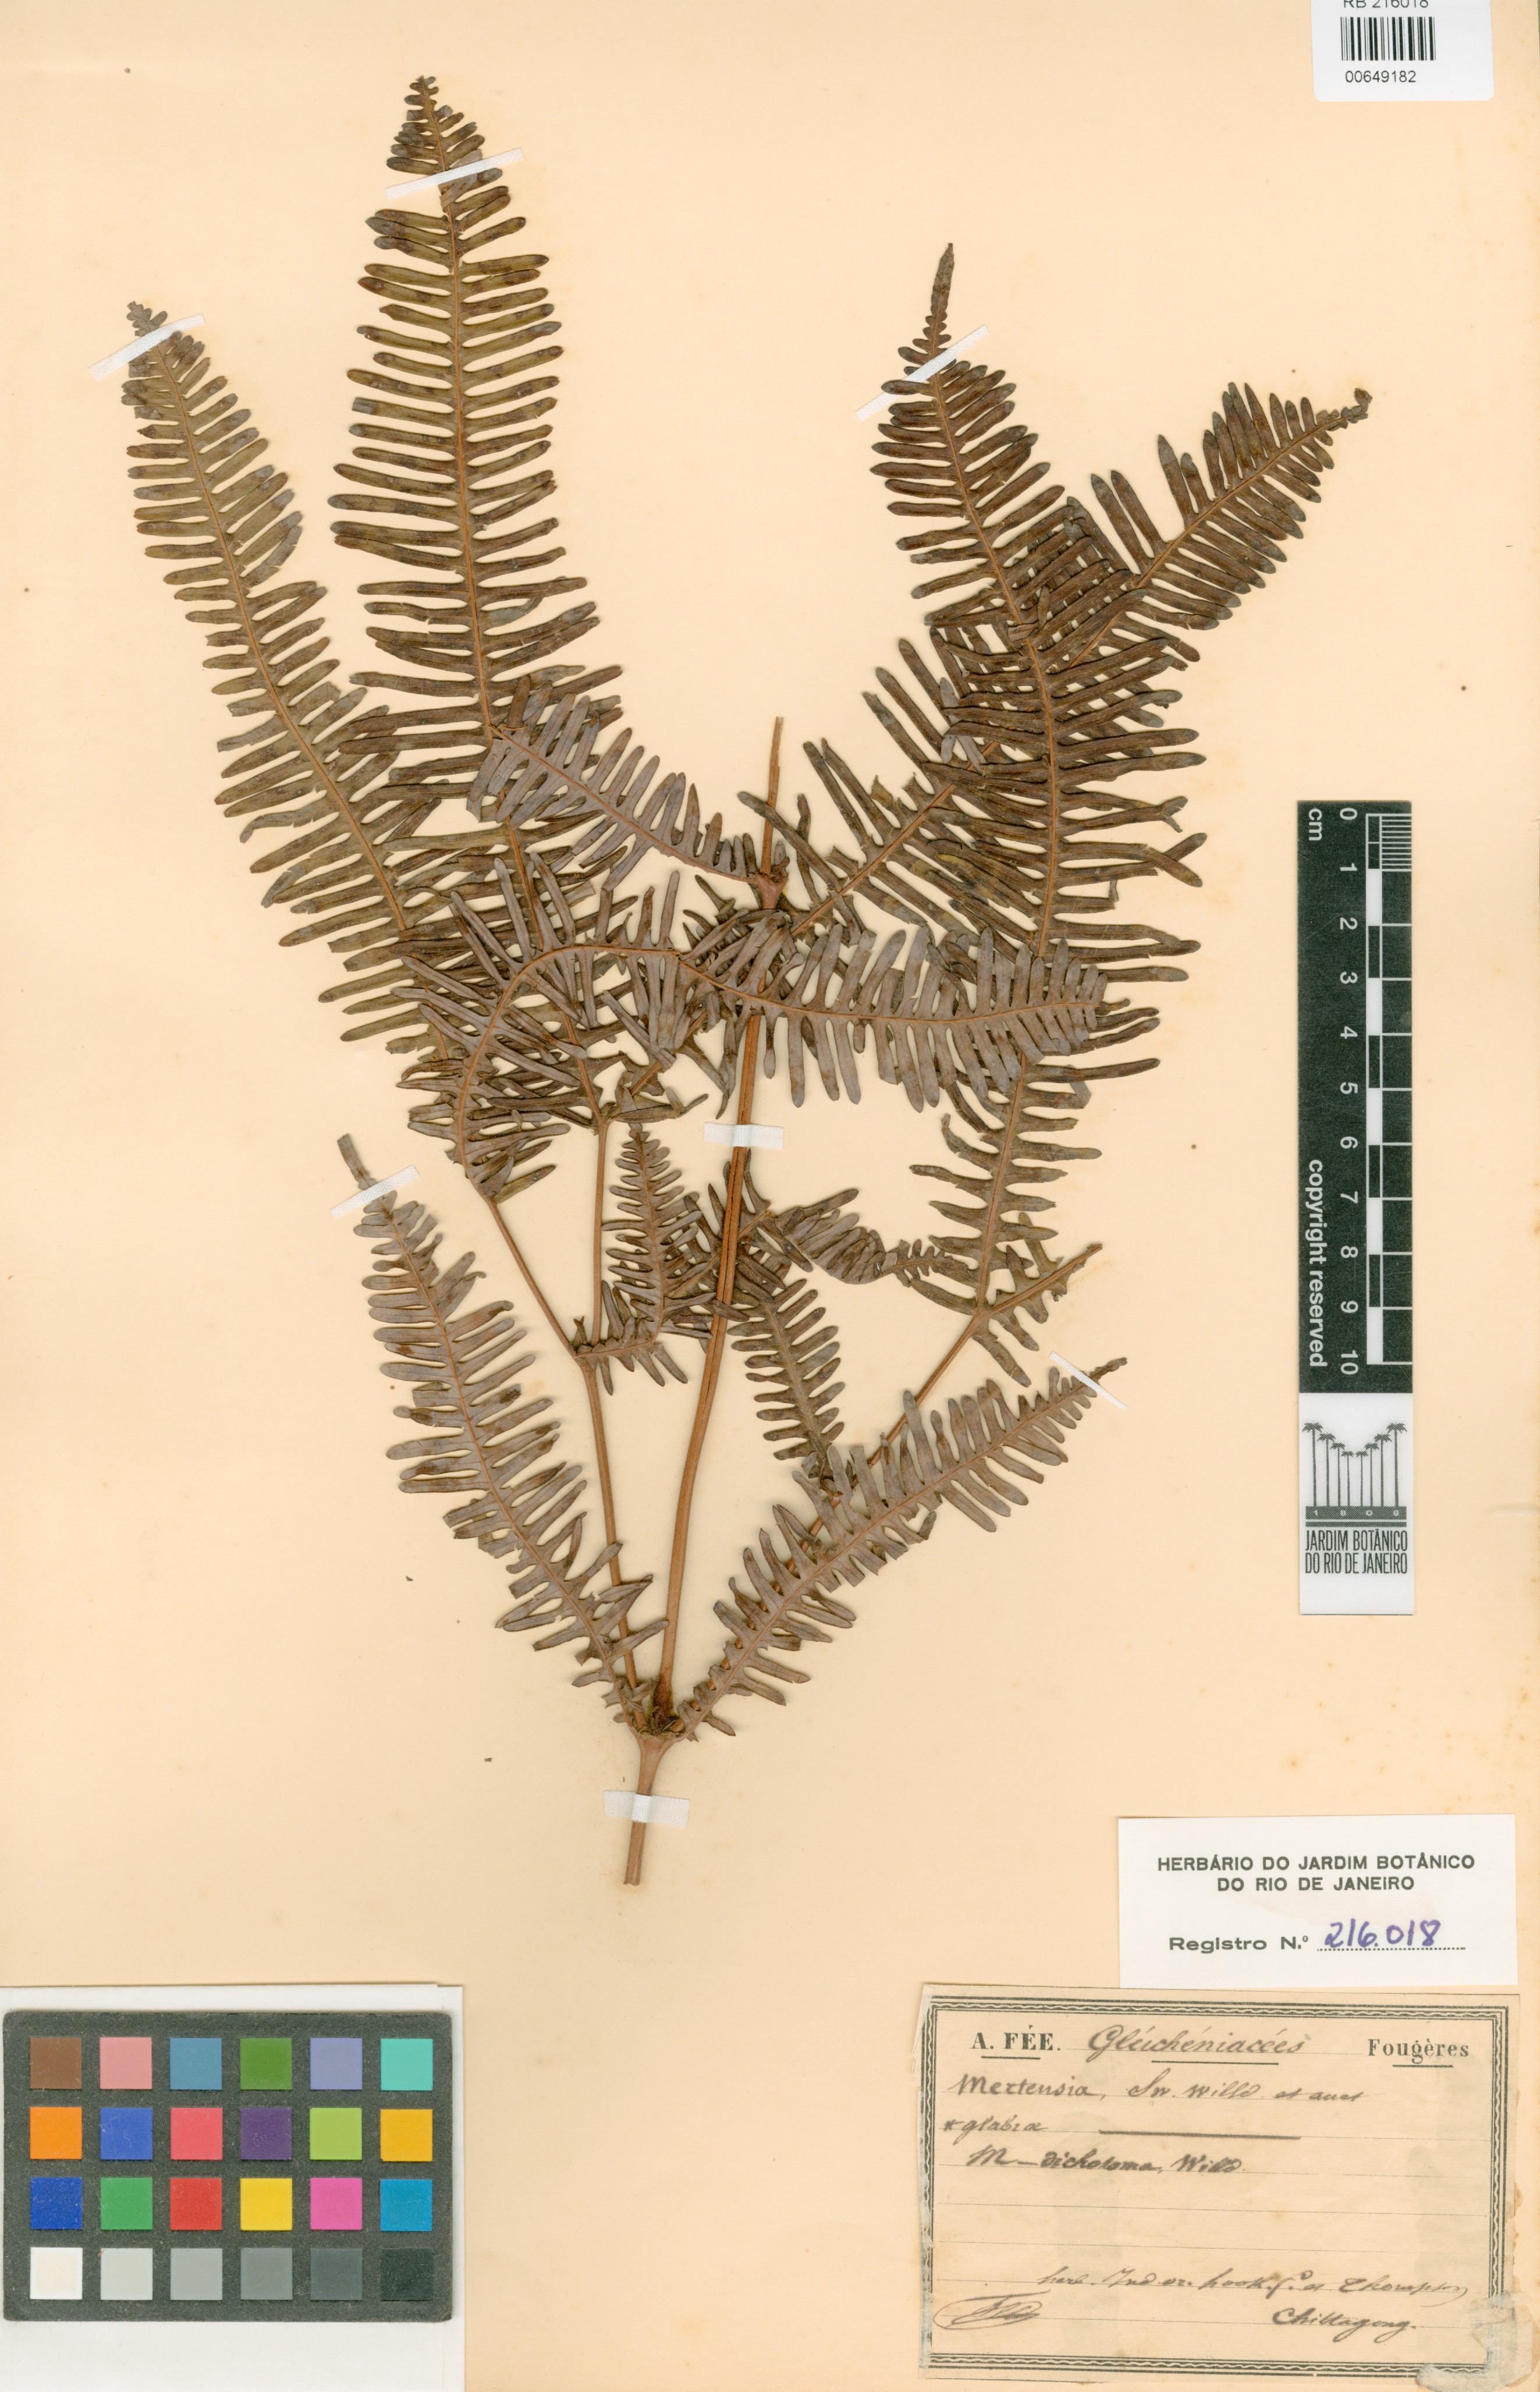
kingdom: Plantae
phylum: Tracheophyta
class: Polypodiopsida
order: Gleicheniales
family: Gleicheniaceae
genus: Dicranopteris
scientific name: Dicranopteris
